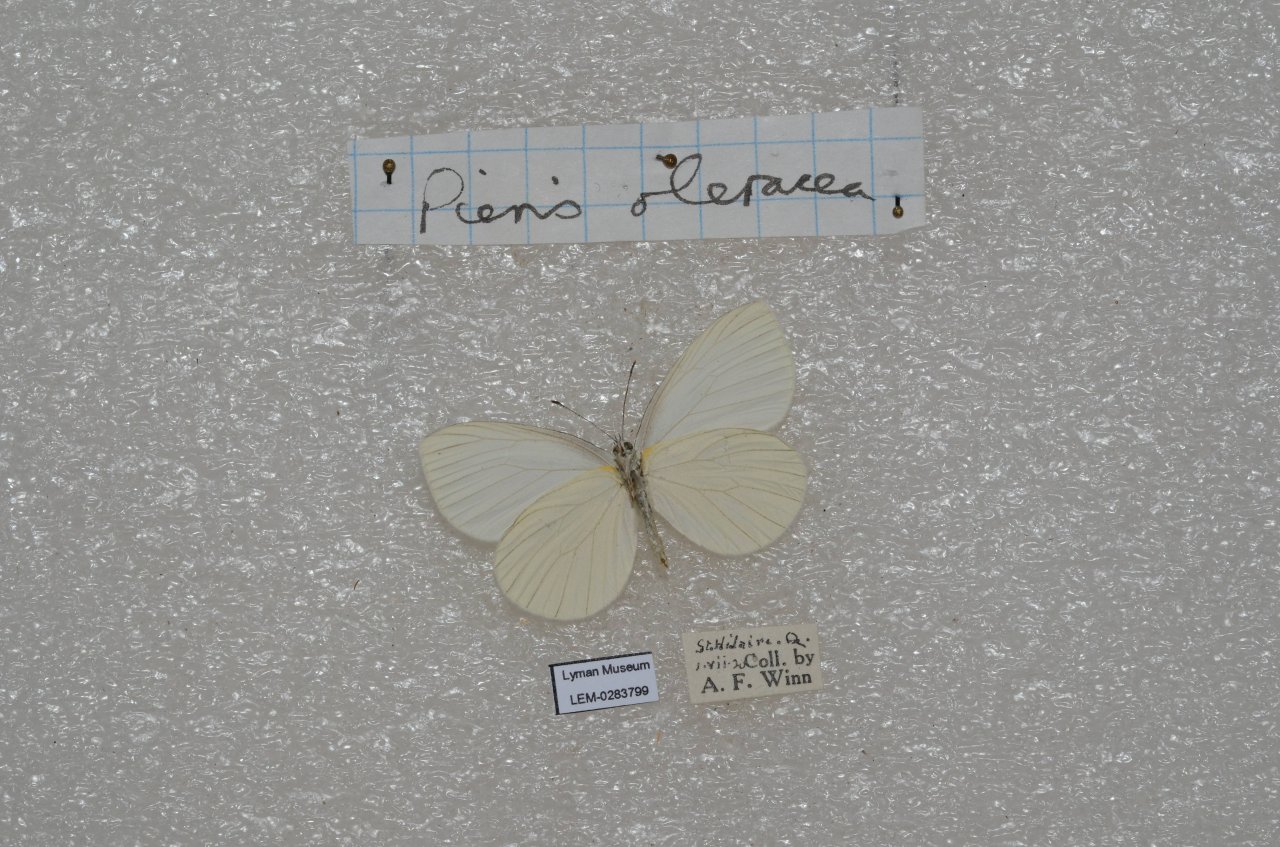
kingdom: Animalia
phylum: Arthropoda
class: Insecta
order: Lepidoptera
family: Pieridae
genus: Pieris
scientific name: Pieris oleracea
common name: Mustard White
